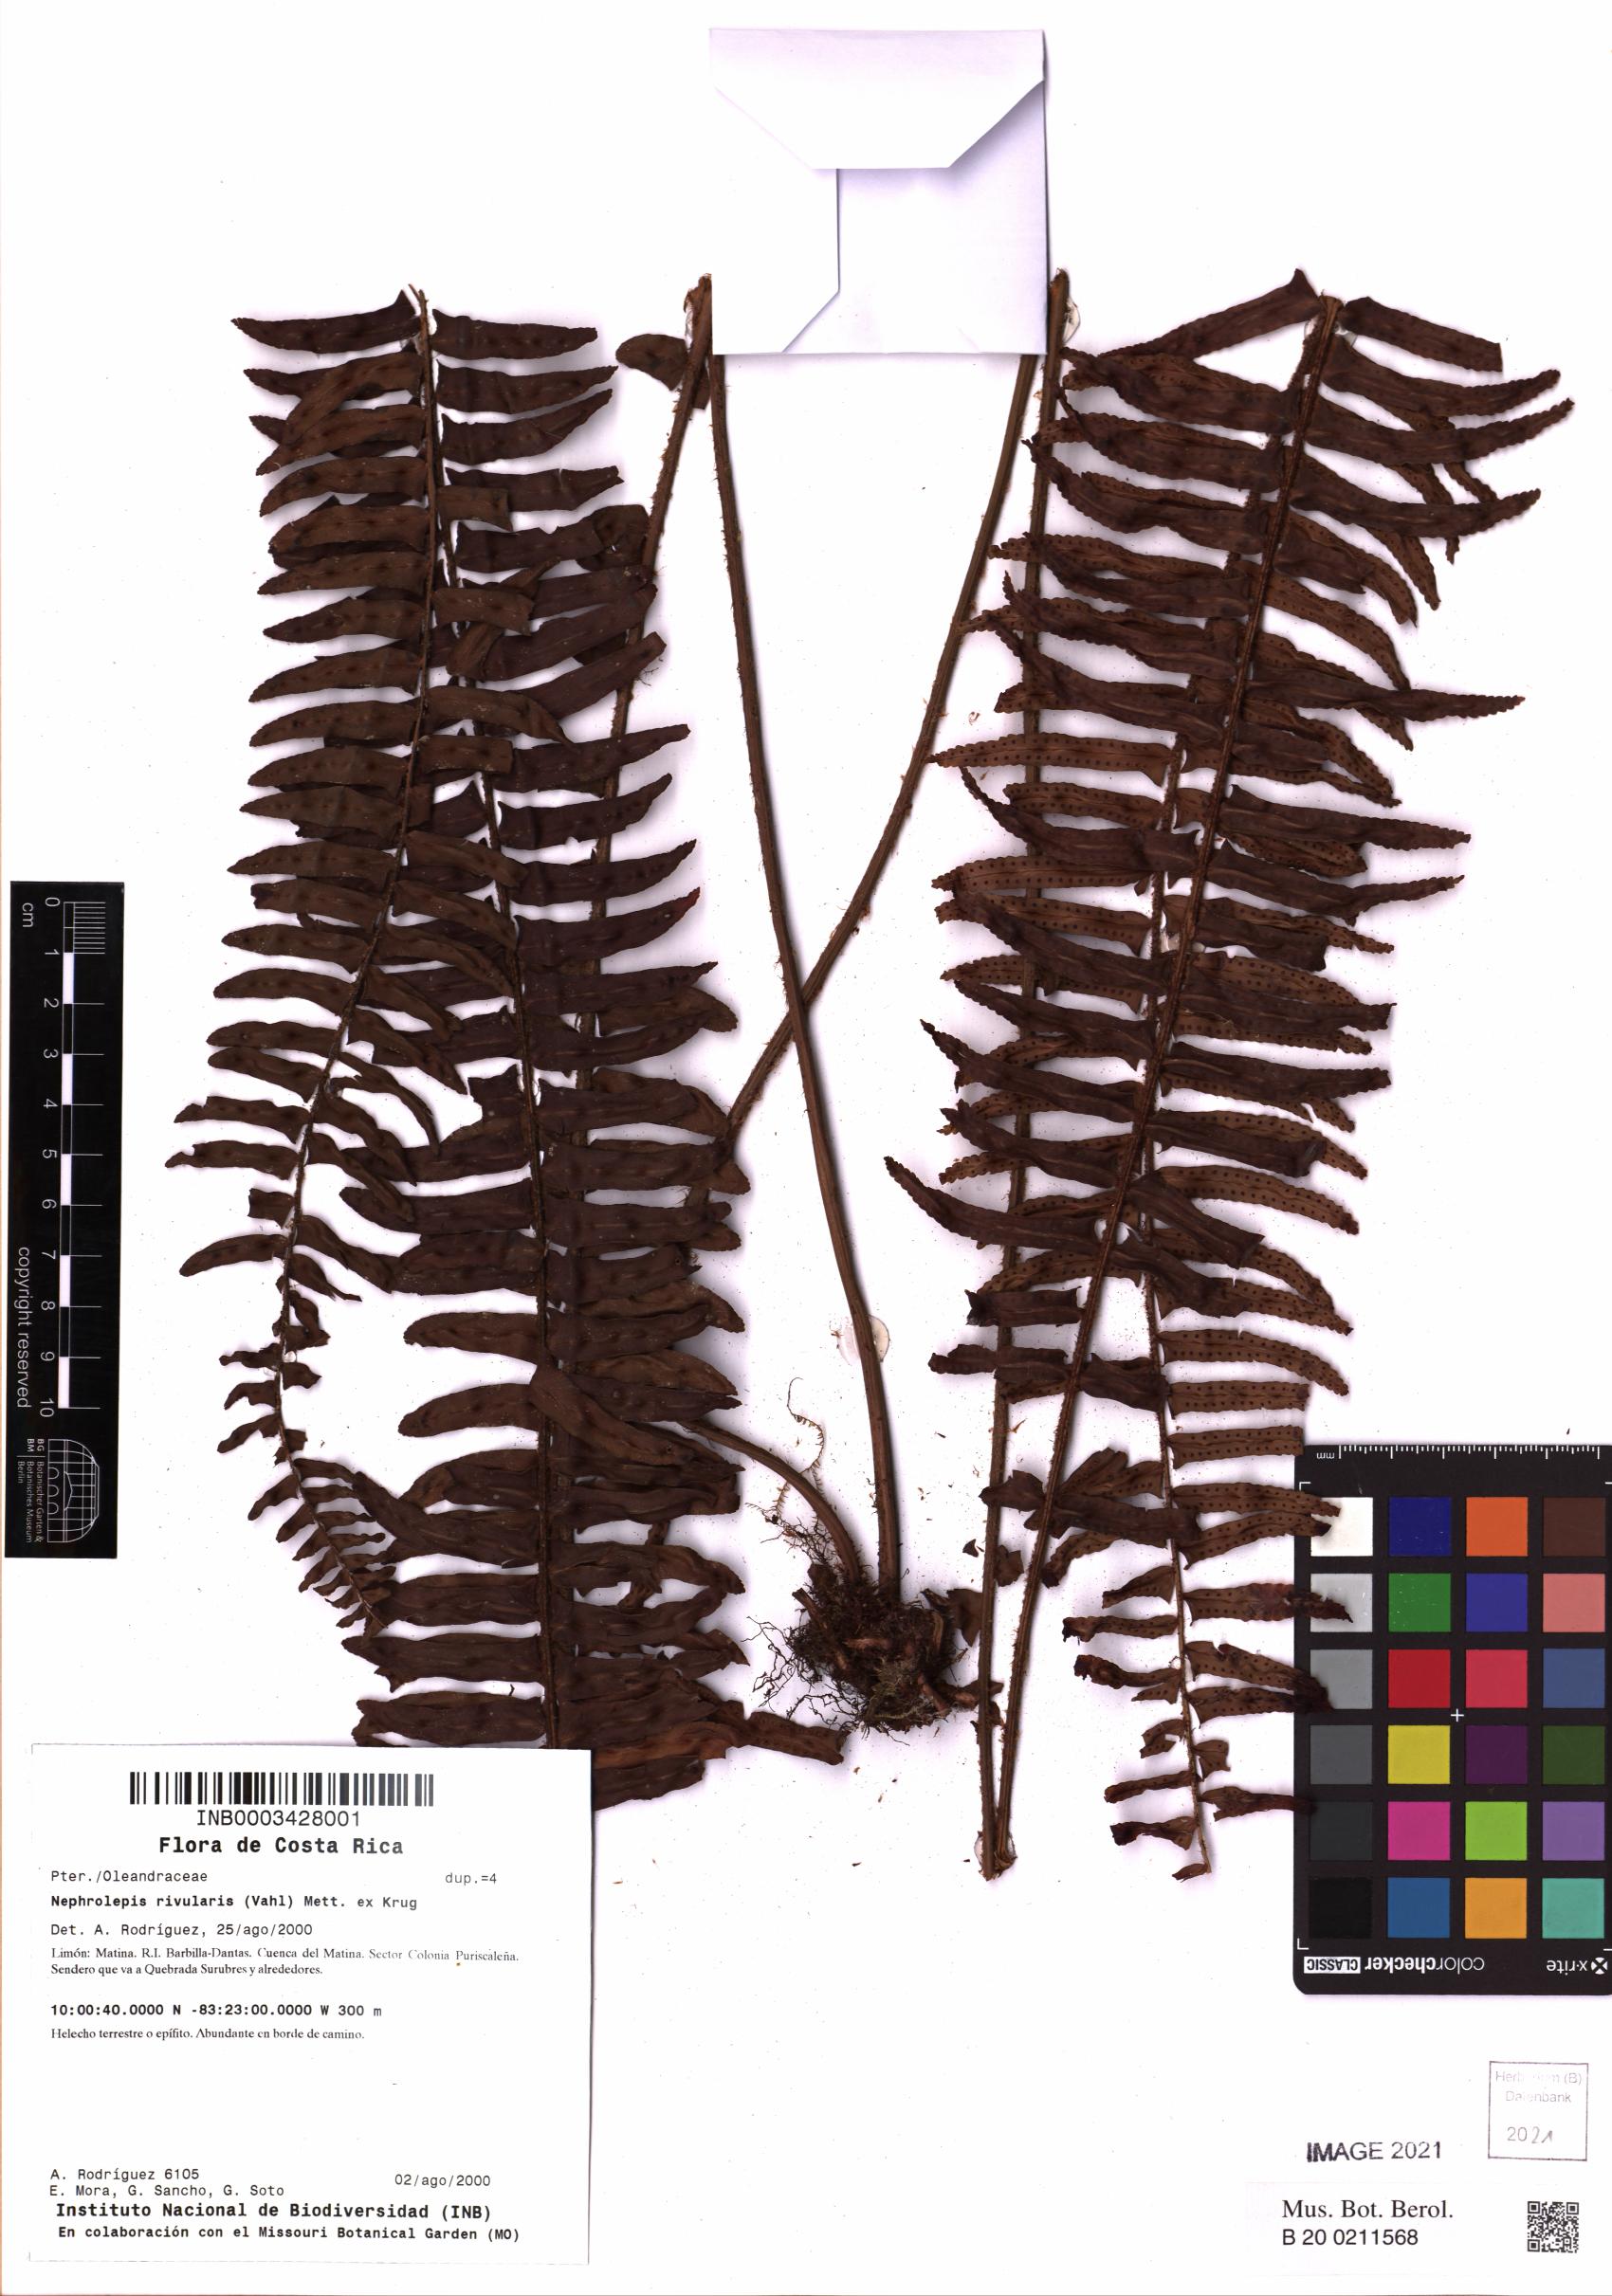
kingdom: Plantae
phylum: Tracheophyta
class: Polypodiopsida
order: Polypodiales
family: Nephrolepidaceae
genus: Nephrolepis
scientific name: Nephrolepis rivularis
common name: Streamside swordfern
